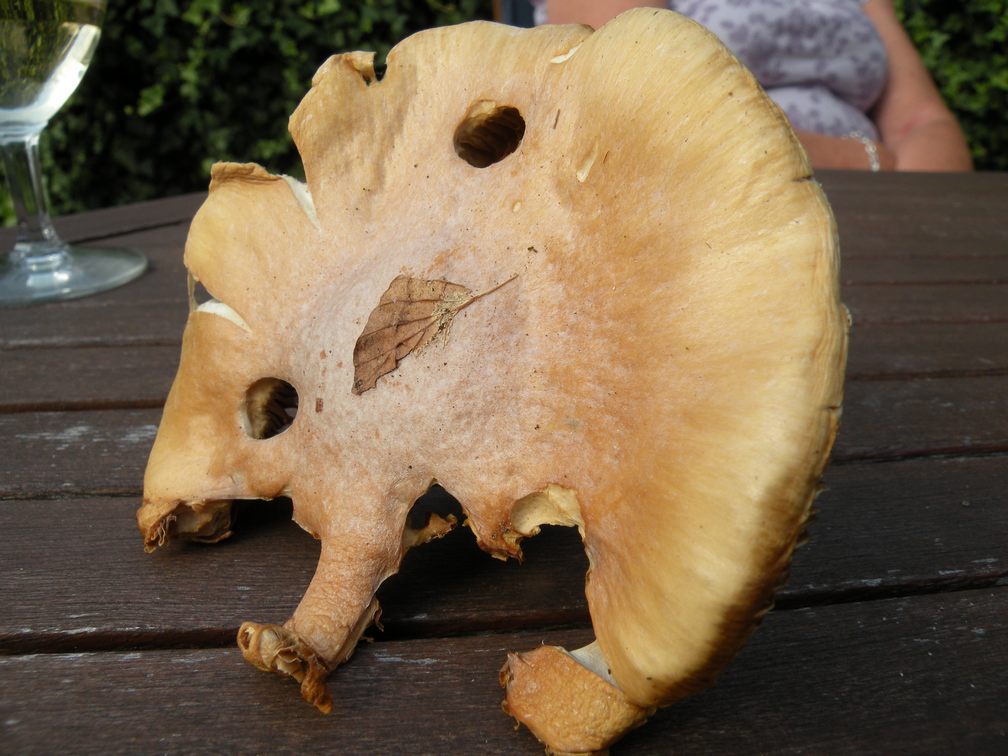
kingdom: Fungi
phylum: Basidiomycota
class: Agaricomycetes
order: Agaricales
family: Cortinariaceae
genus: Cortinarius
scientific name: Cortinarius caperatus
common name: klidhat
